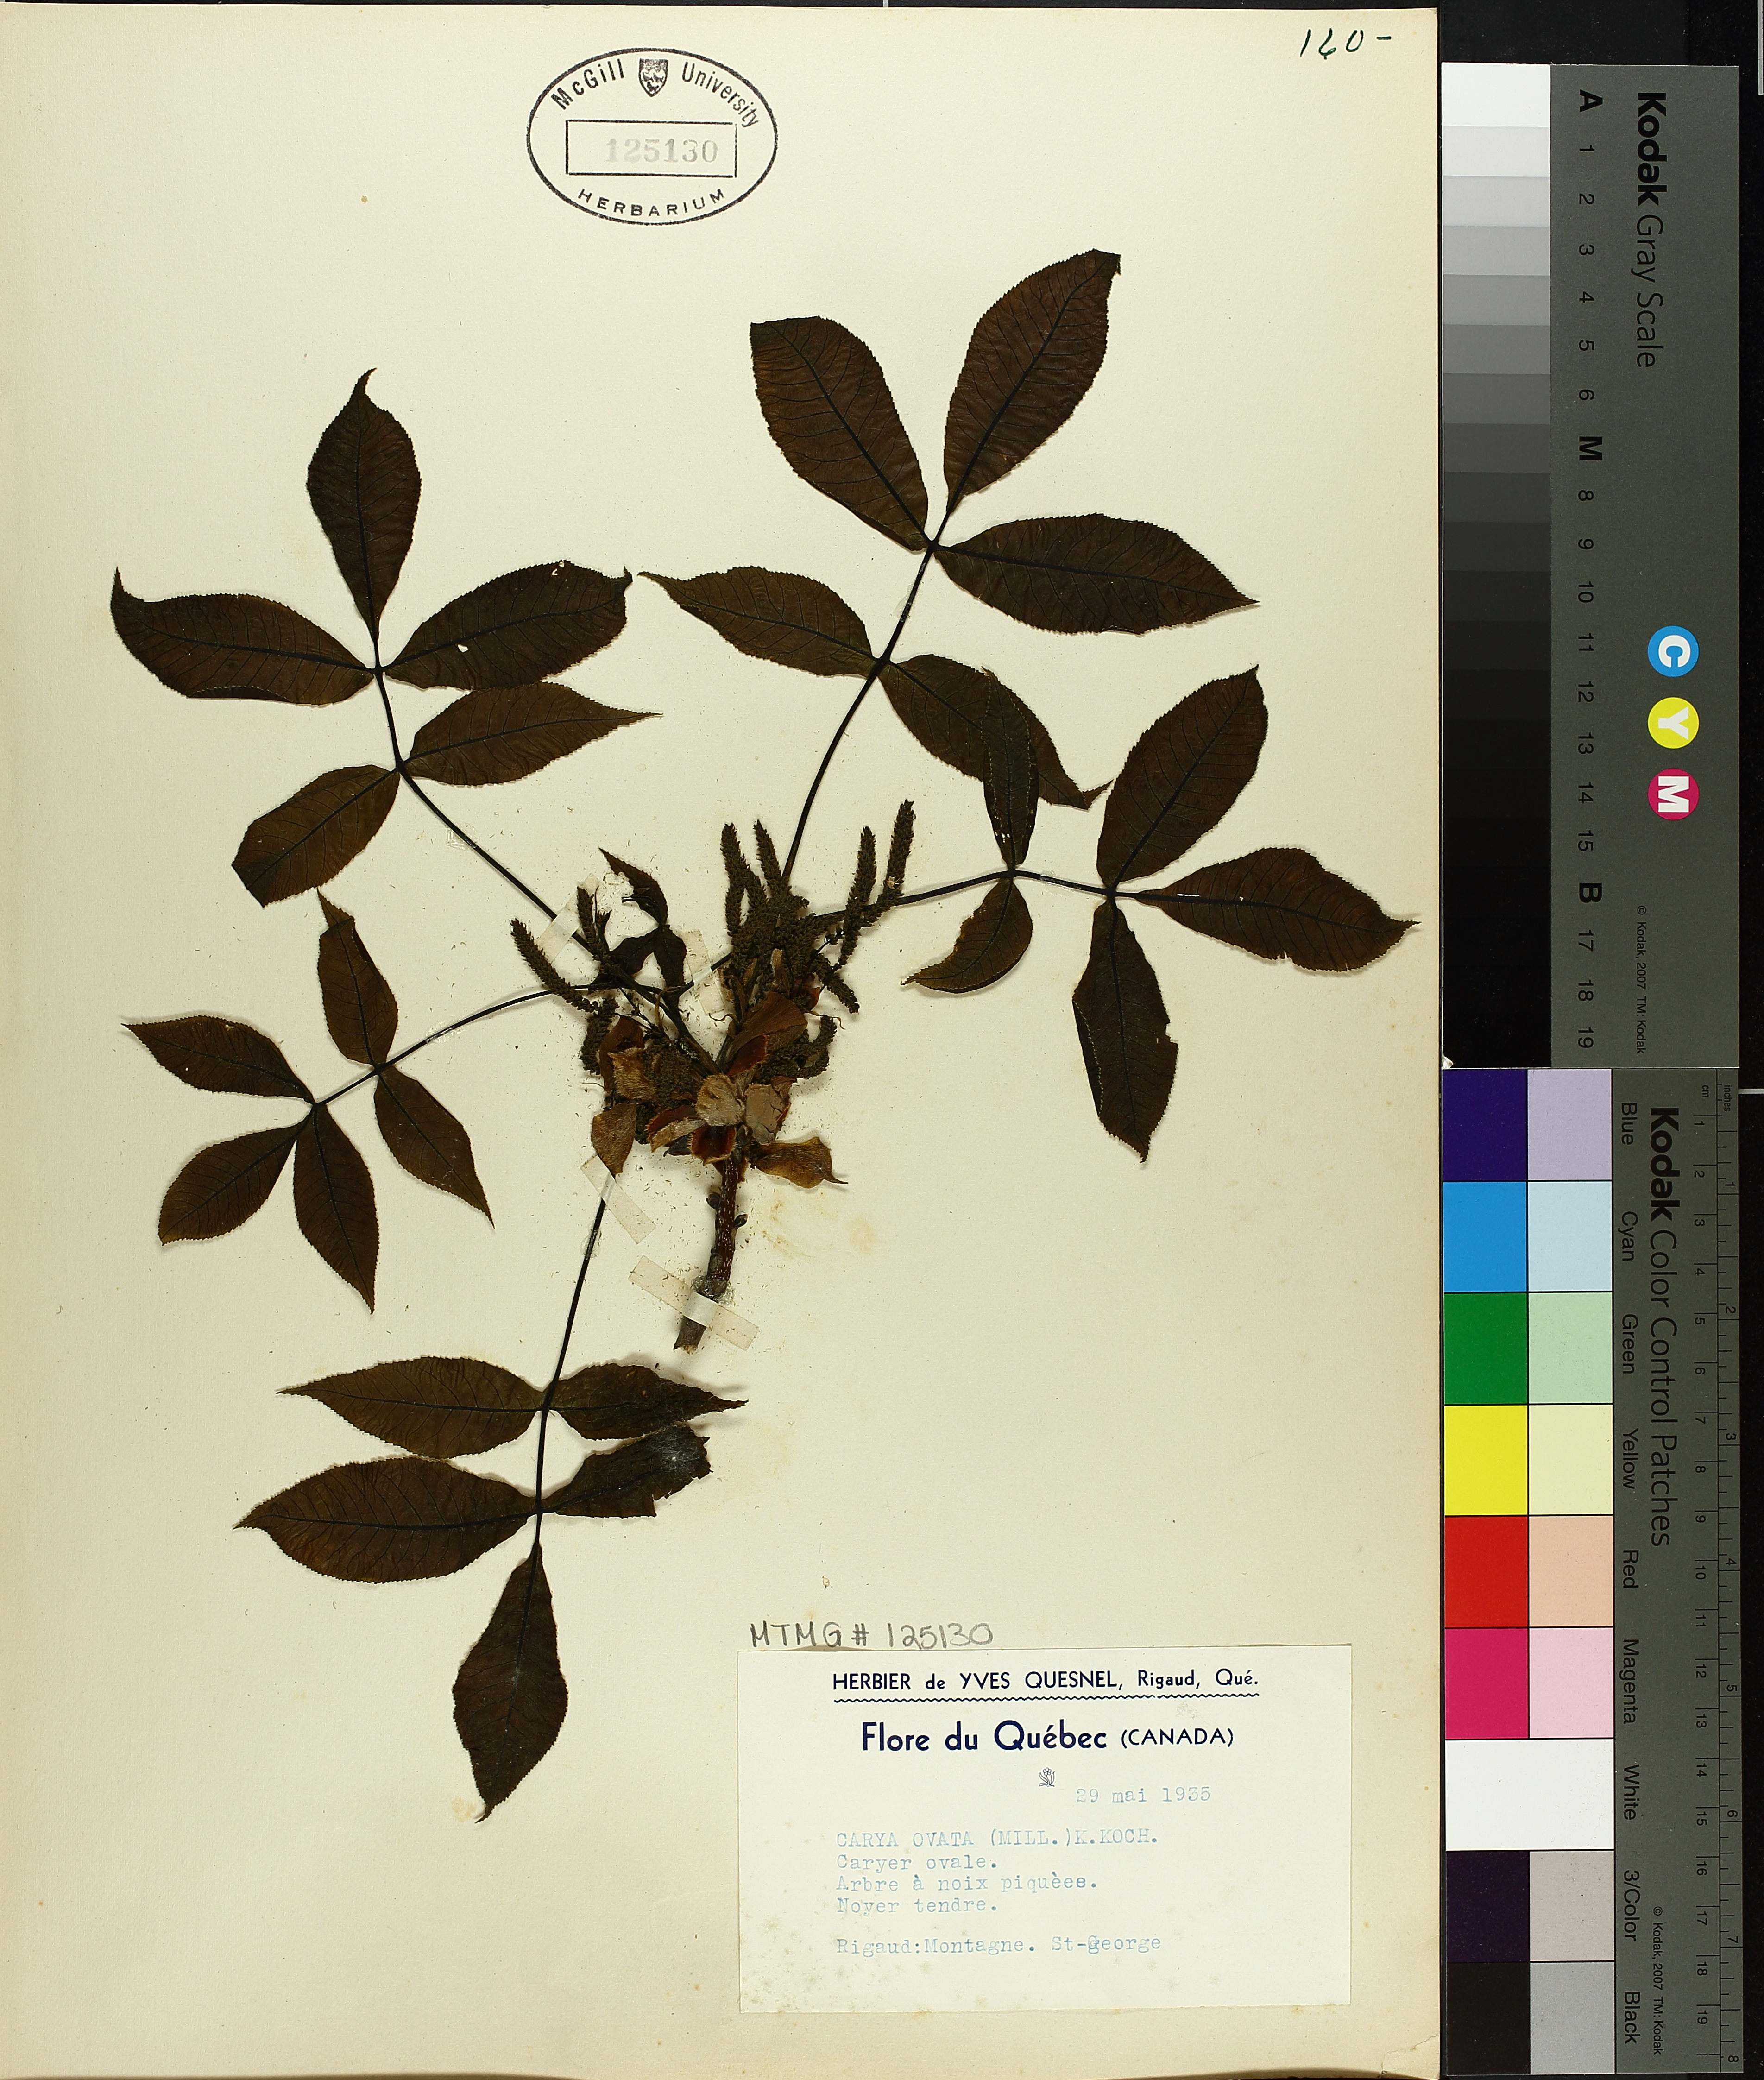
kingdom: Plantae
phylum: Tracheophyta
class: Magnoliopsida
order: Fagales
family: Juglandaceae
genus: Carya
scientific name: Carya ovata
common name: Shagbark hickory
